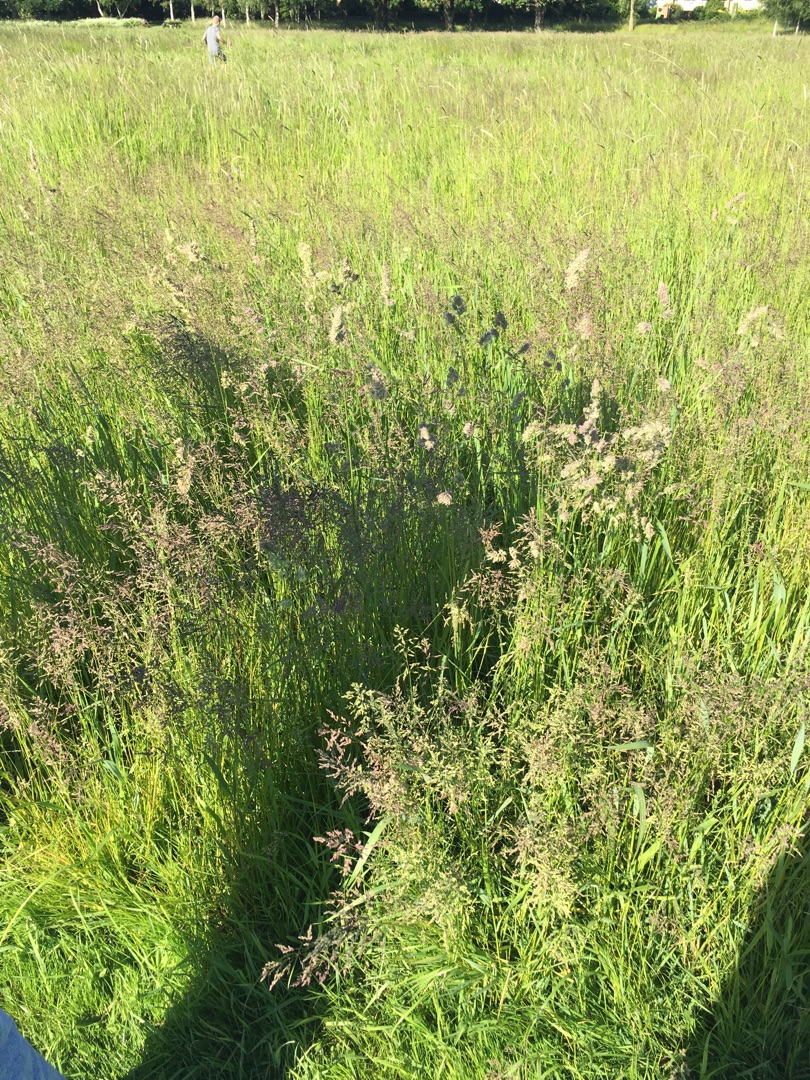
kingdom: Plantae
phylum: Tracheophyta
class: Liliopsida
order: Poales
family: Poaceae
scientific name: Poaceae
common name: Græsfamilien
